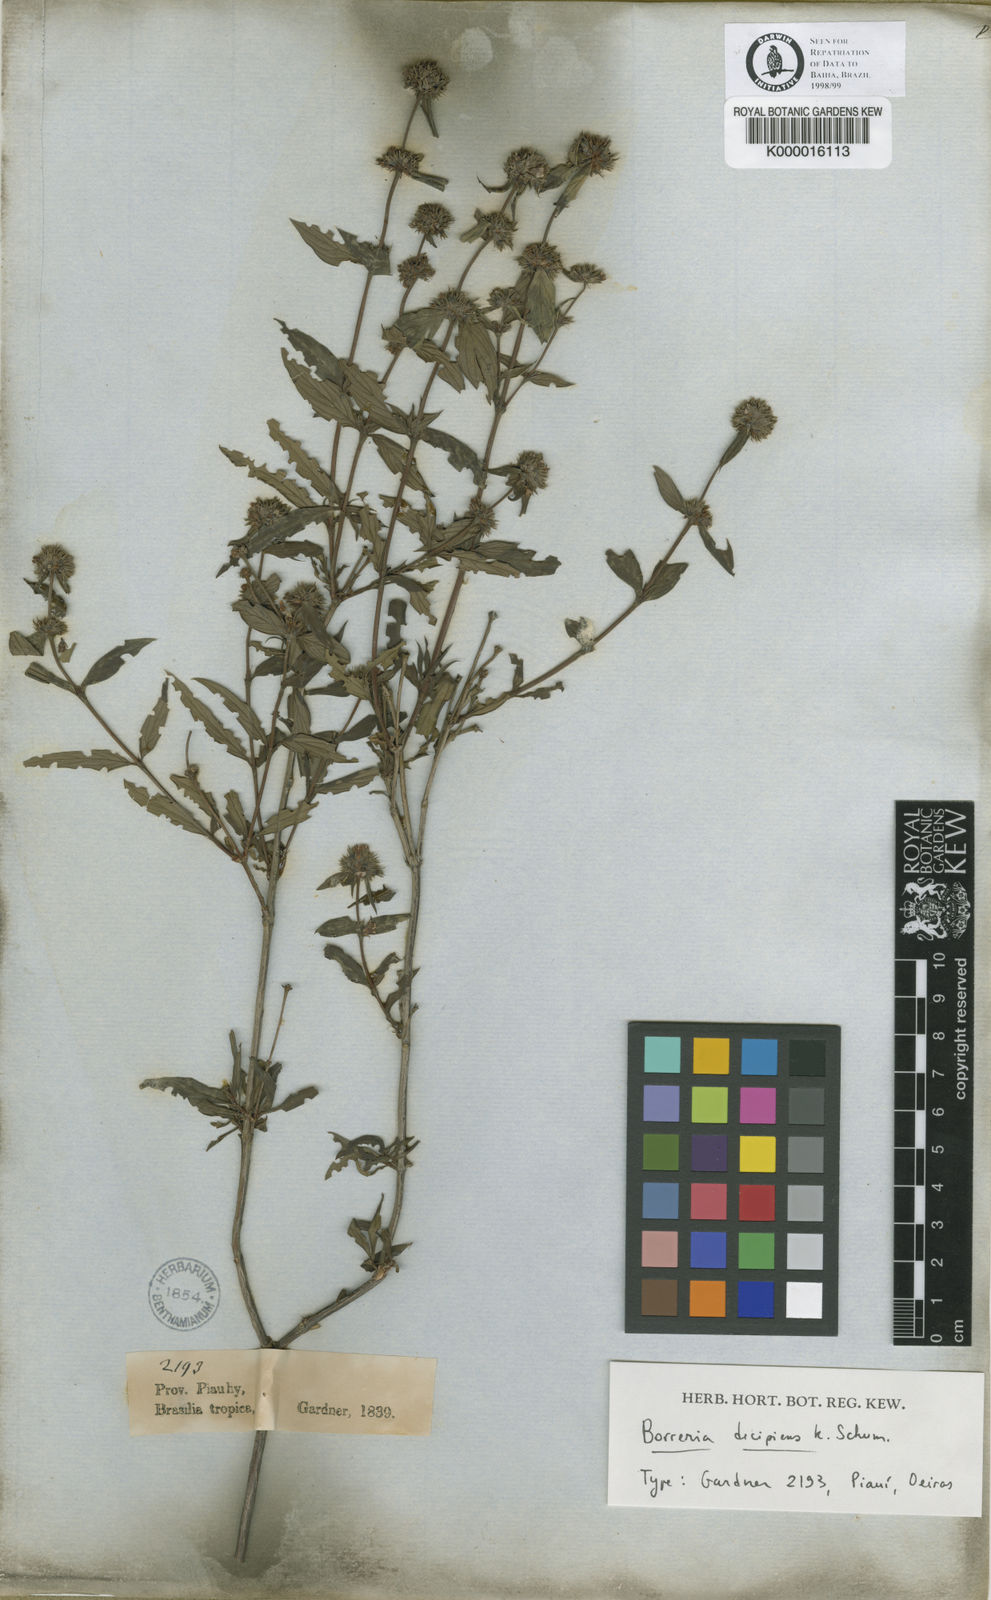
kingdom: Plantae
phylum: Tracheophyta
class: Magnoliopsida
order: Gentianales
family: Rubiaceae
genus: Spermacoce
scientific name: Spermacoce decipiens
